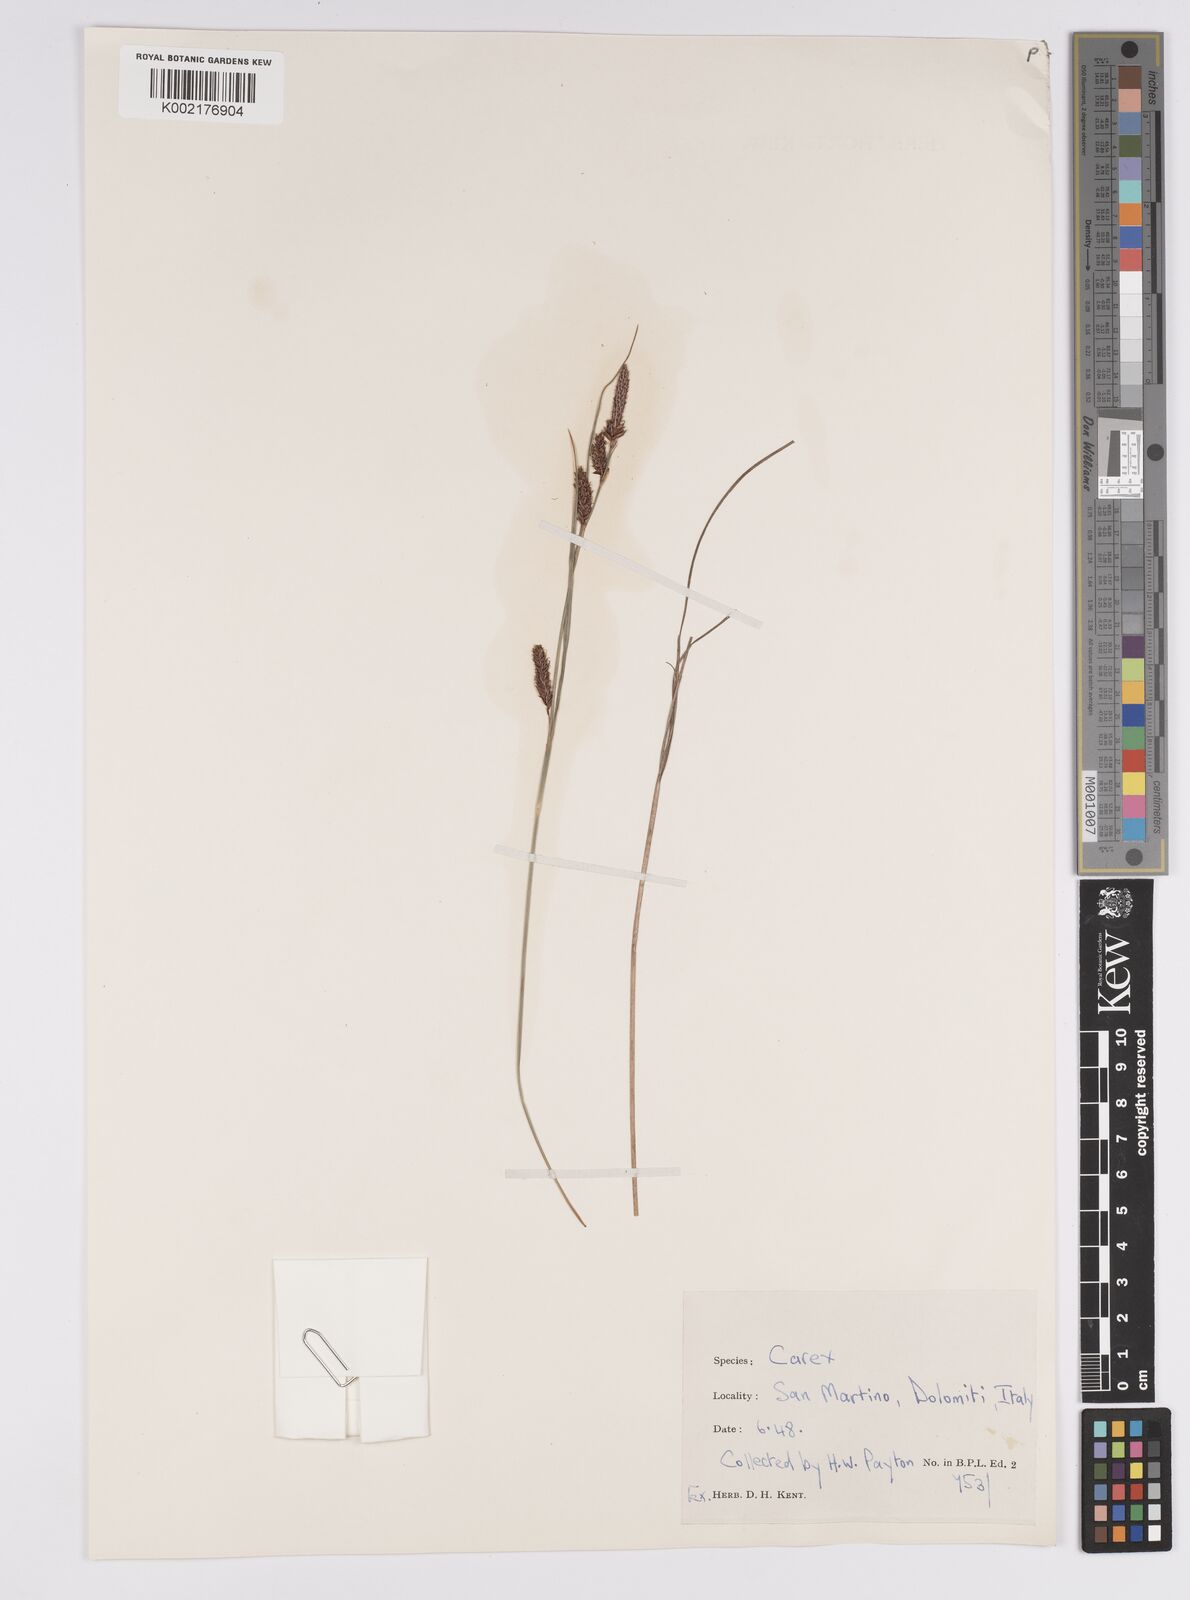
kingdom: Plantae
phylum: Tracheophyta
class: Liliopsida
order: Poales
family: Cyperaceae
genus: Carex
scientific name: Carex binervis
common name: Green-ribbed sedge
